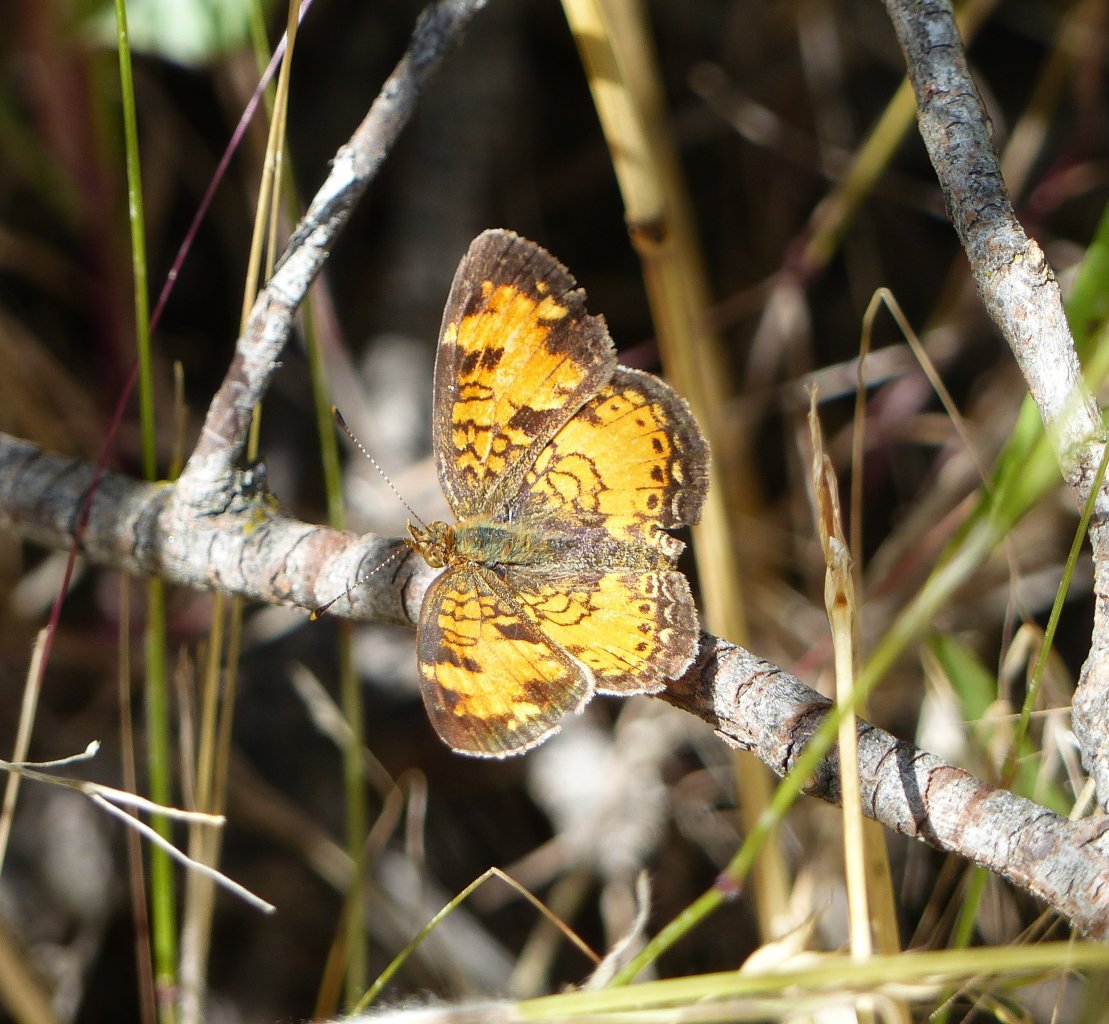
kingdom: Animalia
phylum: Arthropoda
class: Insecta
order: Lepidoptera
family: Nymphalidae
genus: Phyciodes
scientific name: Phyciodes tharos
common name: Northern Crescent
